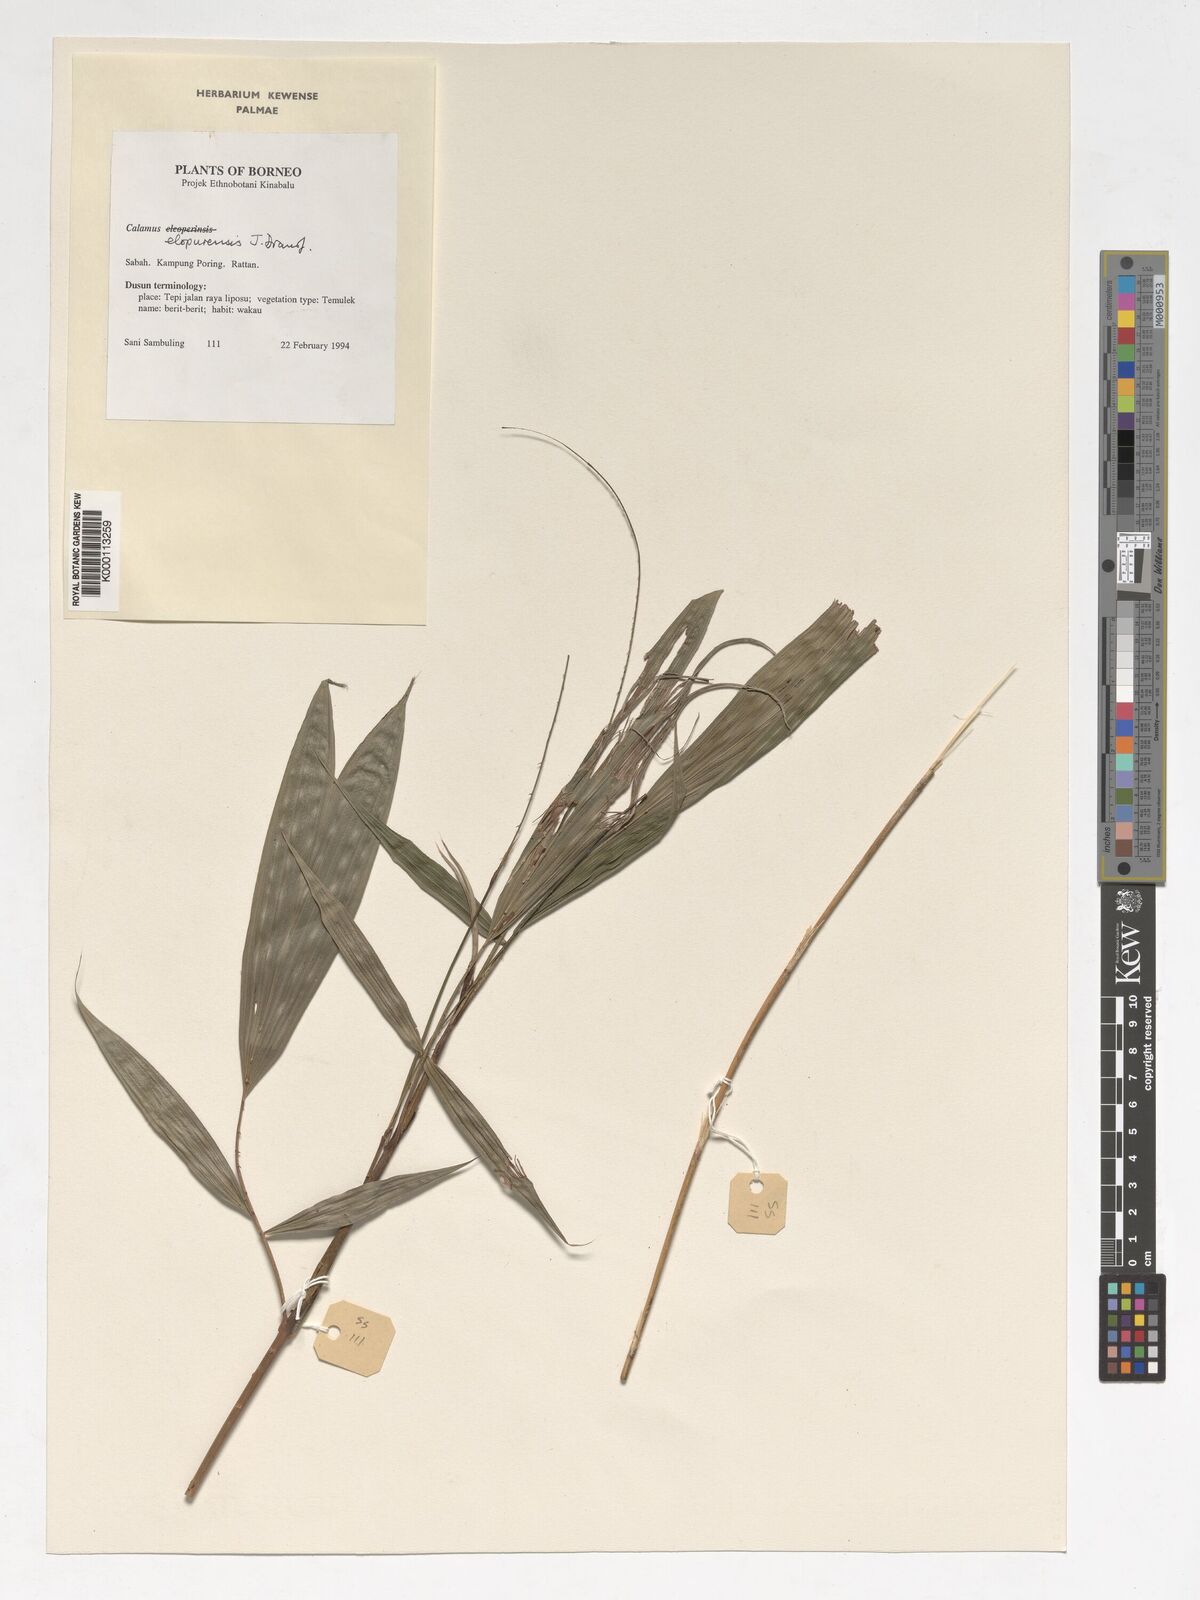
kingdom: Plantae
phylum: Tracheophyta
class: Liliopsida
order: Arecales
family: Arecaceae
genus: Calamus
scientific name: Calamus javensis
